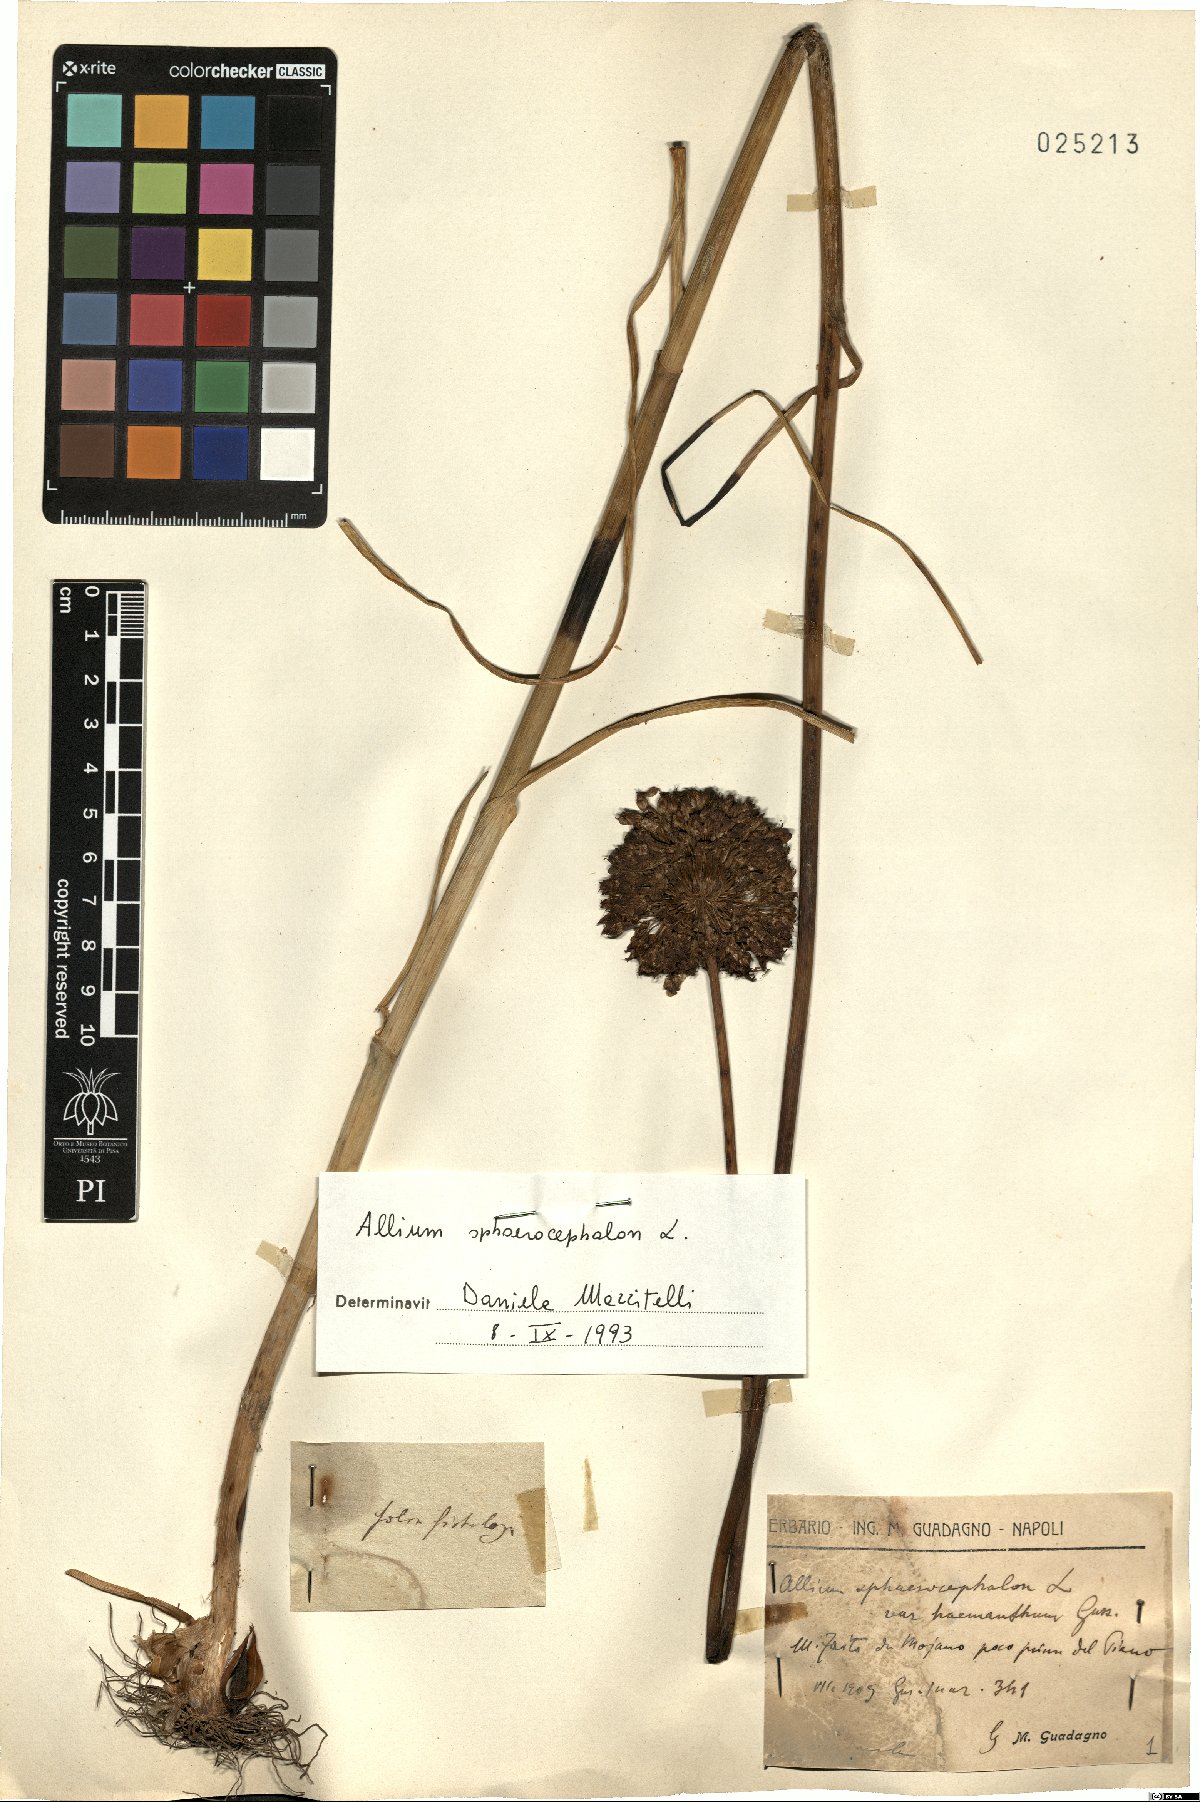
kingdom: Plantae
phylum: Tracheophyta
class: Liliopsida
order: Asparagales
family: Amaryllidaceae
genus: Allium
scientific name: Allium sphaerocephalon
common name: Round-headed leek
